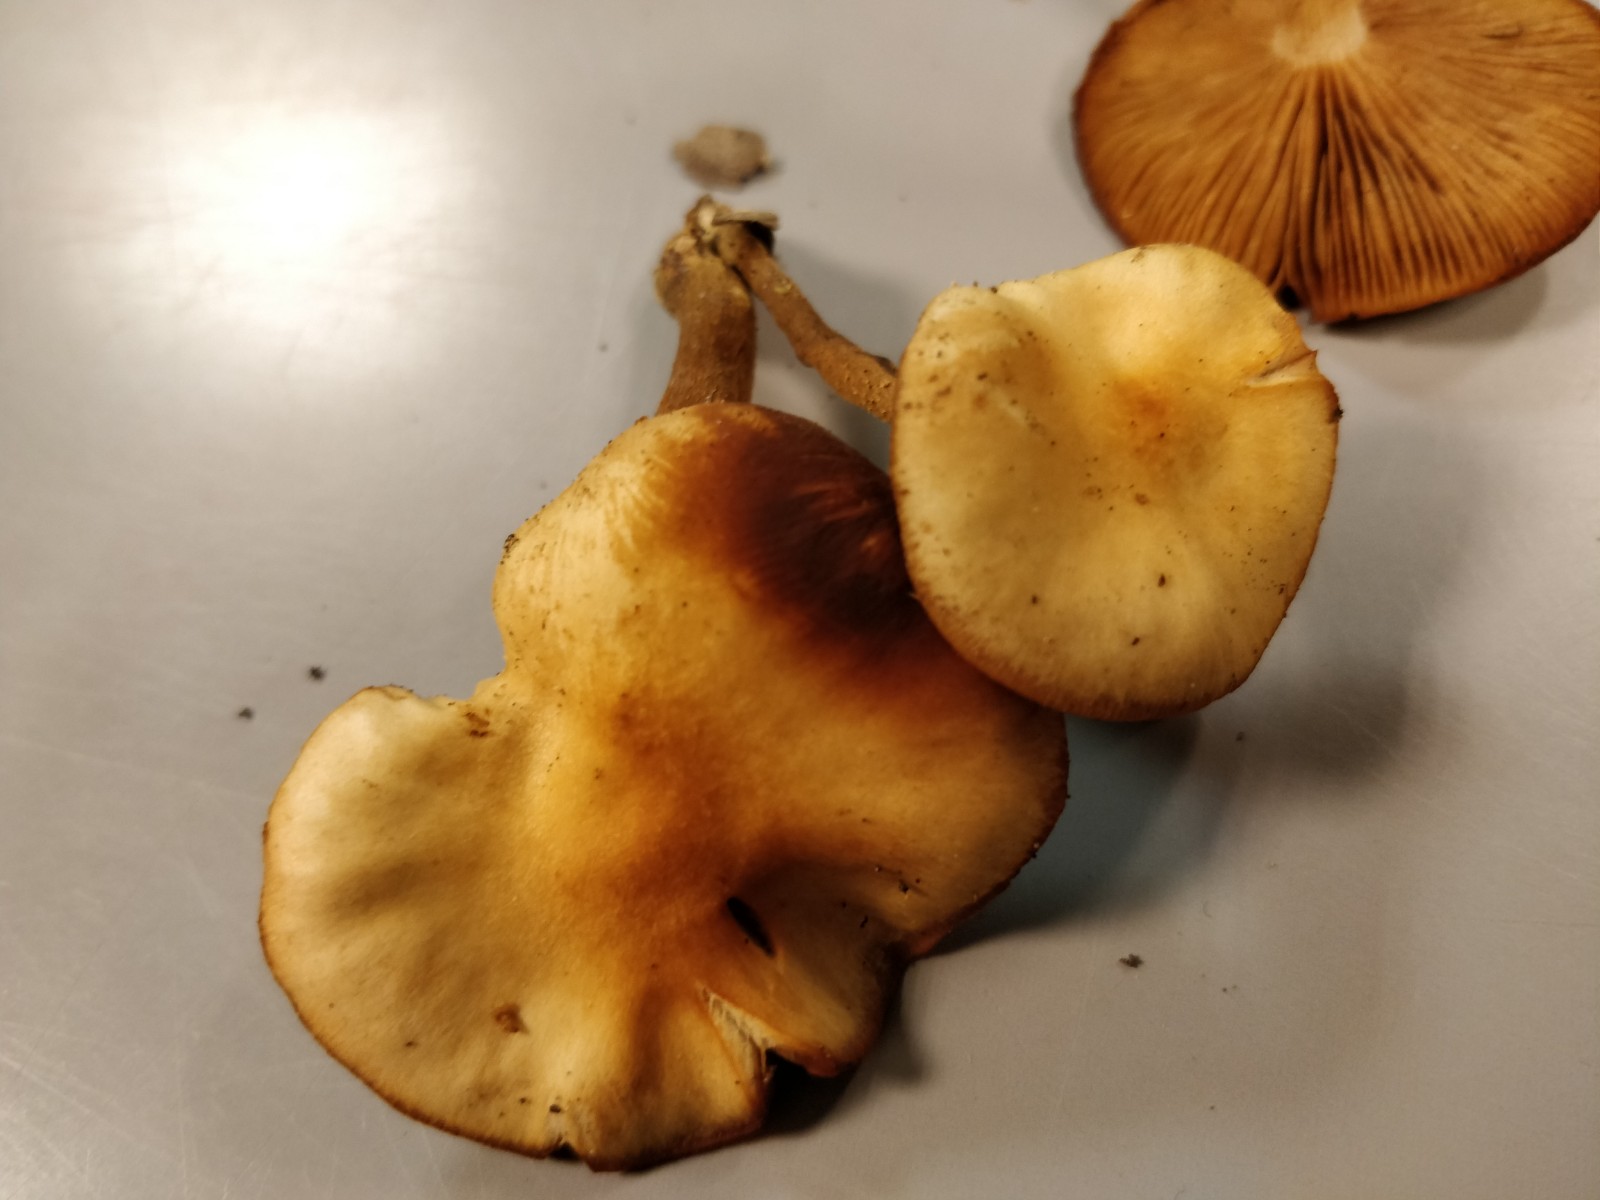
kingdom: Fungi
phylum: Basidiomycota
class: Agaricomycetes
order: Agaricales
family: Strophariaceae
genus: Kuehneromyces
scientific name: Kuehneromyces mutabilis
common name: foranderlig skælhat
